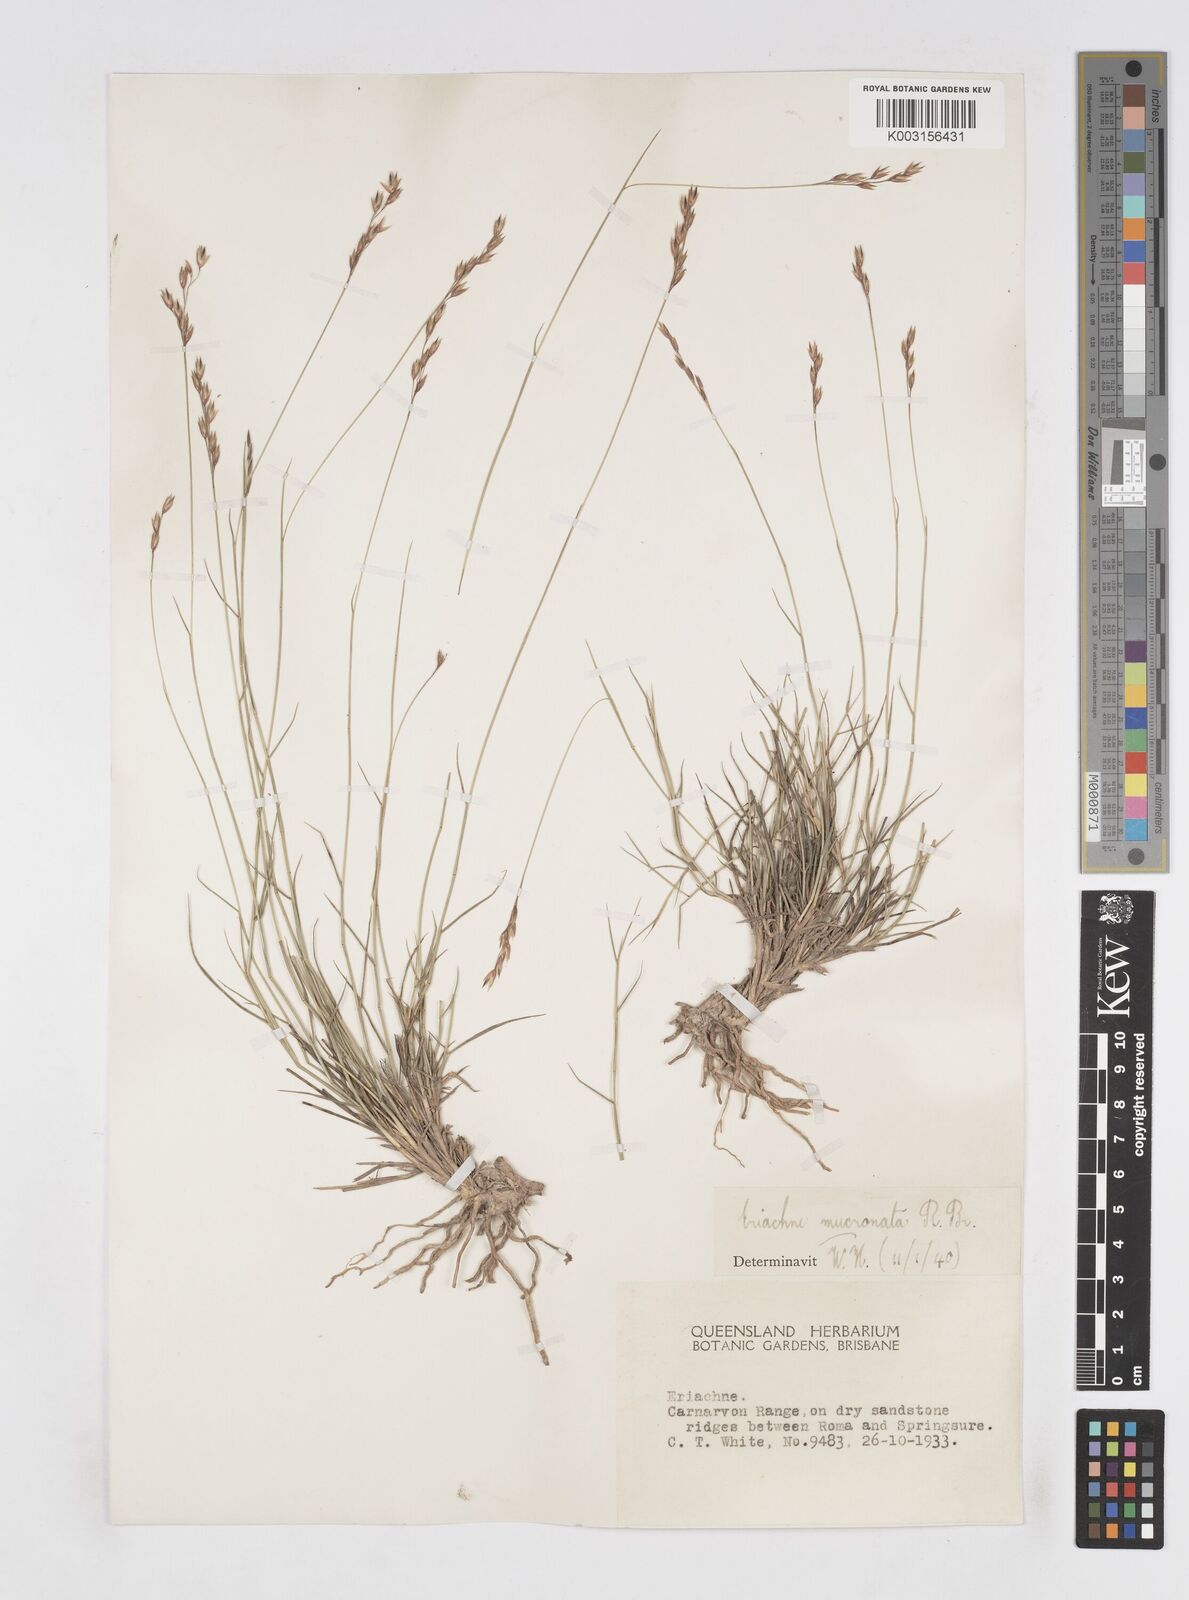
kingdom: Plantae
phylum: Tracheophyta
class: Liliopsida
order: Poales
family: Poaceae
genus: Eriachne
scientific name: Eriachne mucronata
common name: Mountain wanderrie grass
